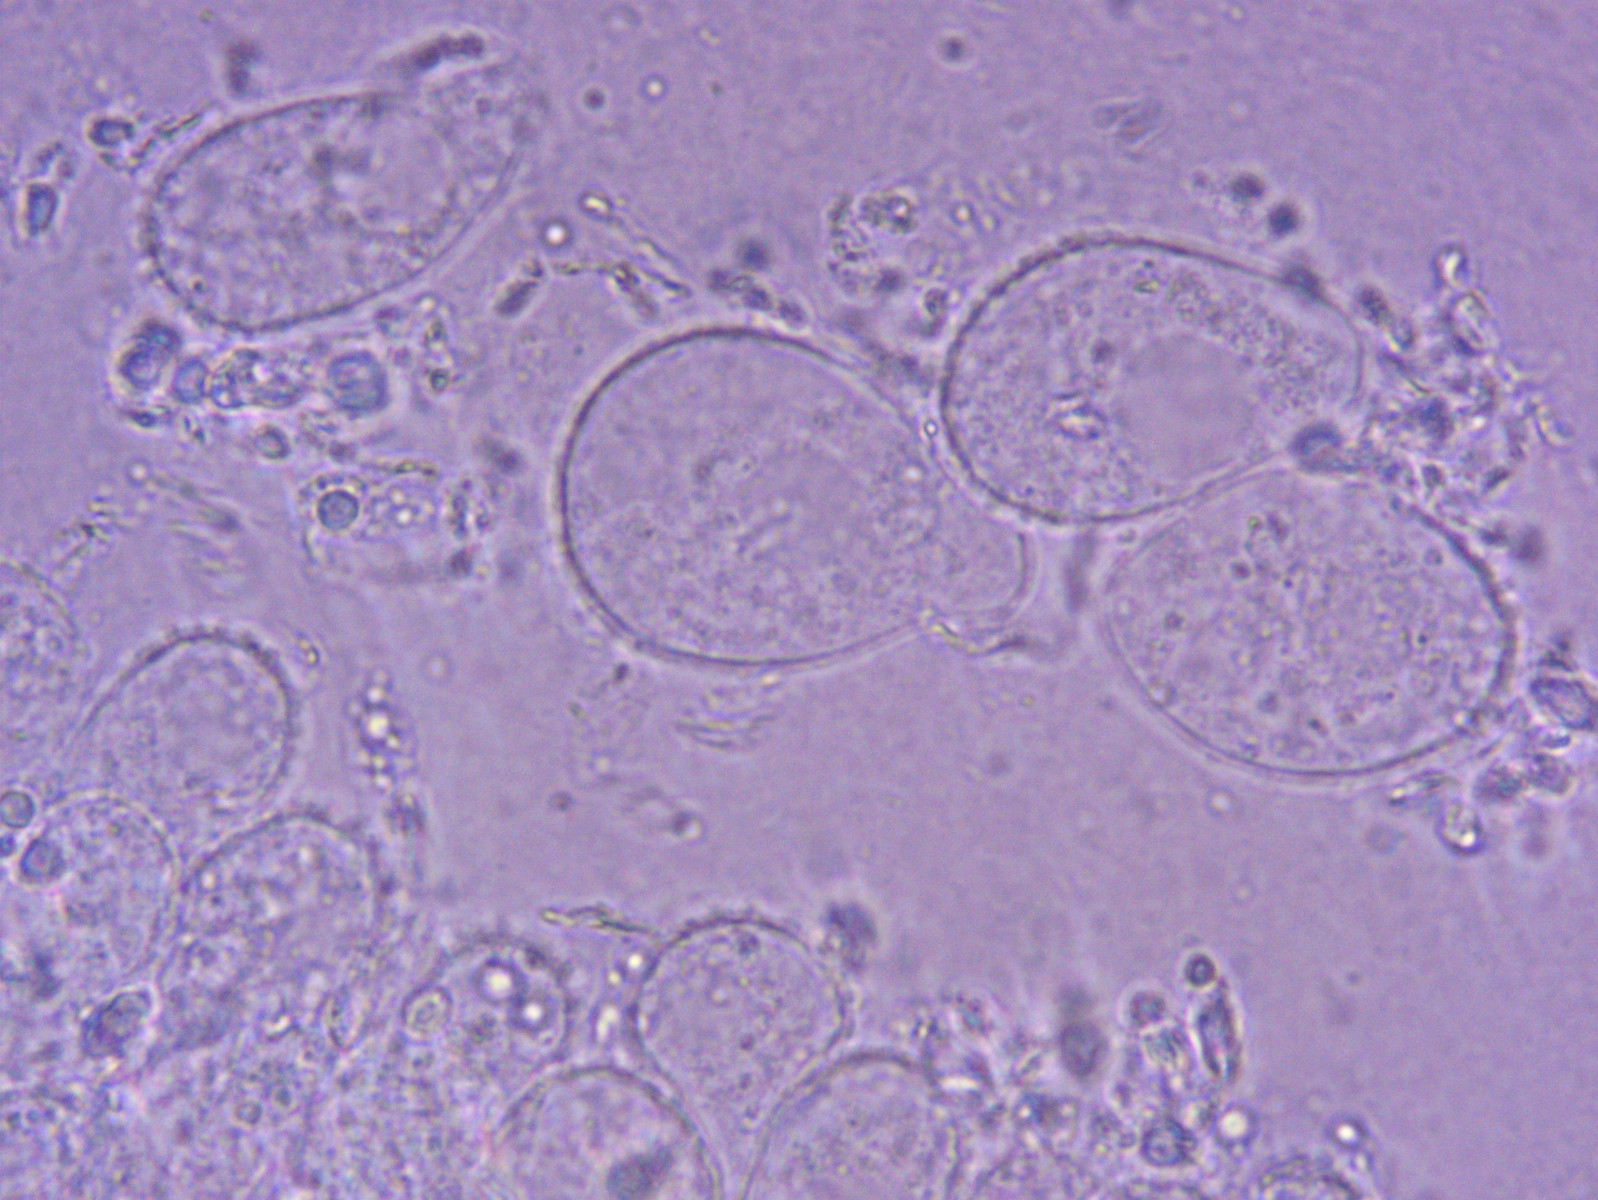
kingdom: Fungi
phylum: Basidiomycota
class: Agaricomycetes
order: Agaricales
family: Mycenaceae
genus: Mycena
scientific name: Mycena flavescens
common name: grågul huesvamp
